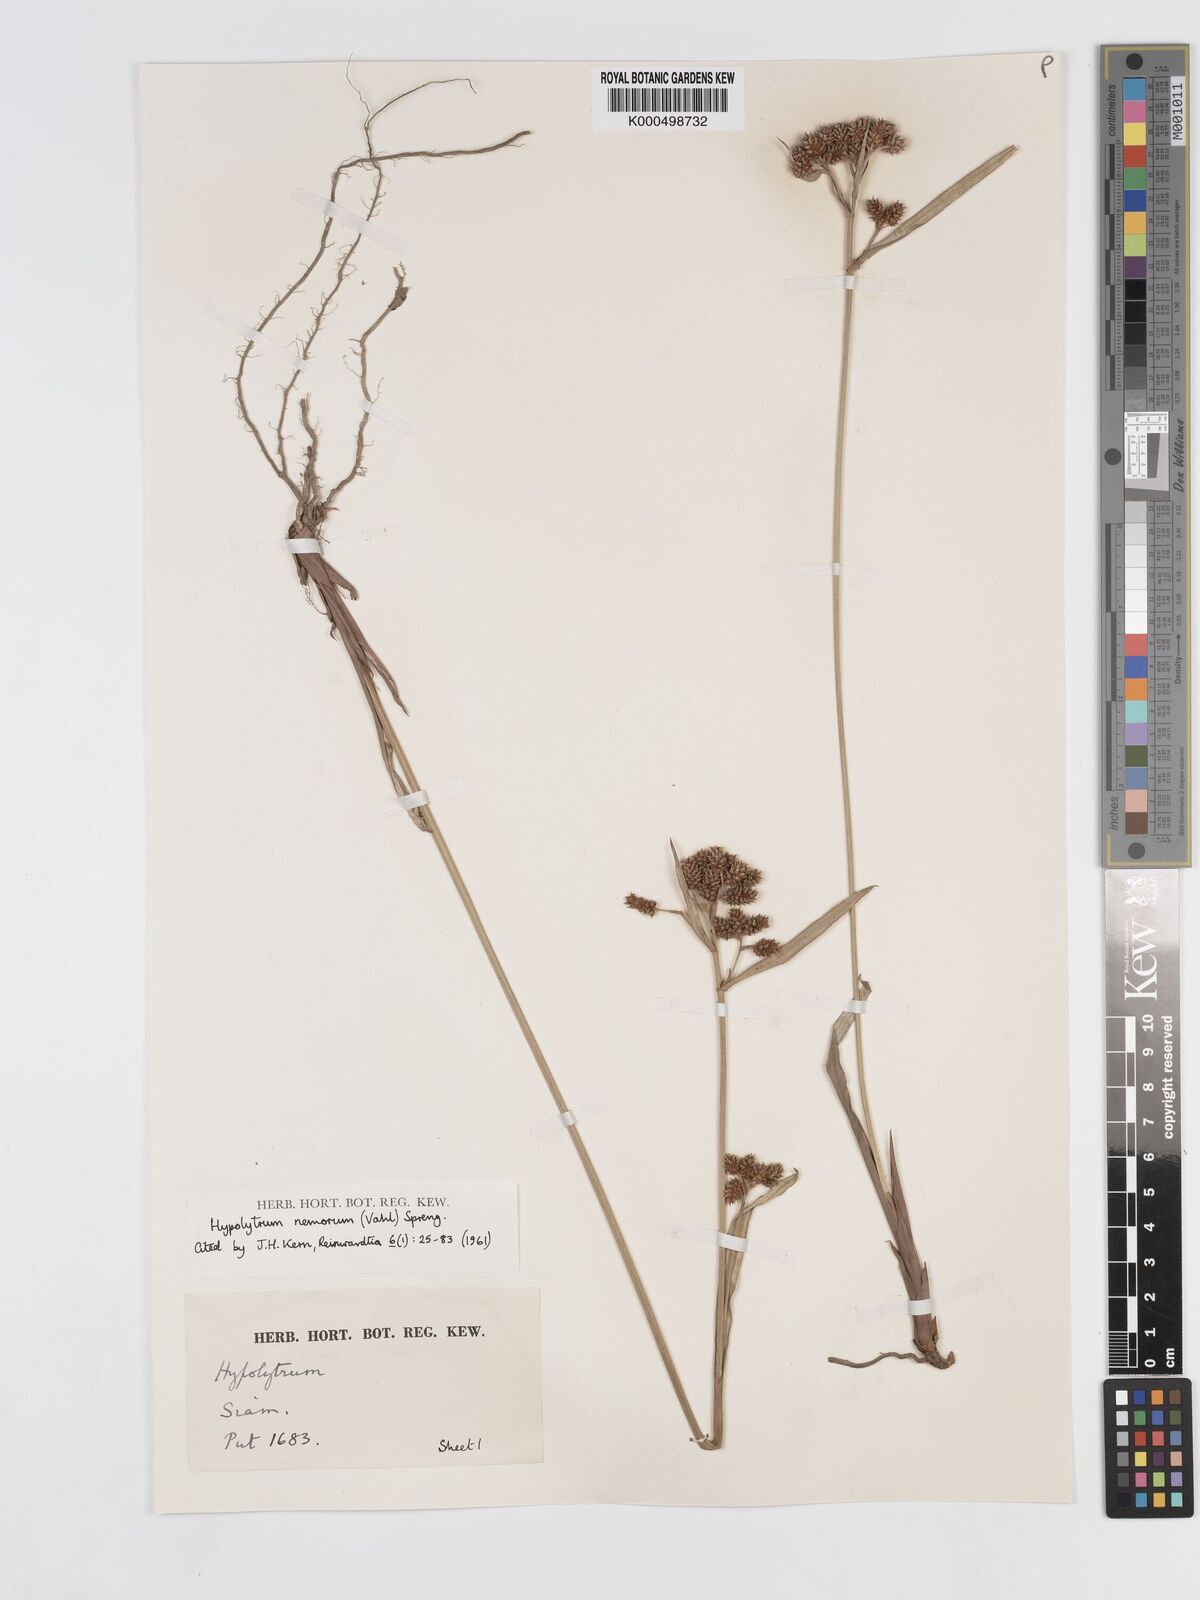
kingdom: Plantae
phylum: Tracheophyta
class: Liliopsida
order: Poales
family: Cyperaceae
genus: Hypolytrum
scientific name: Hypolytrum nemorum
